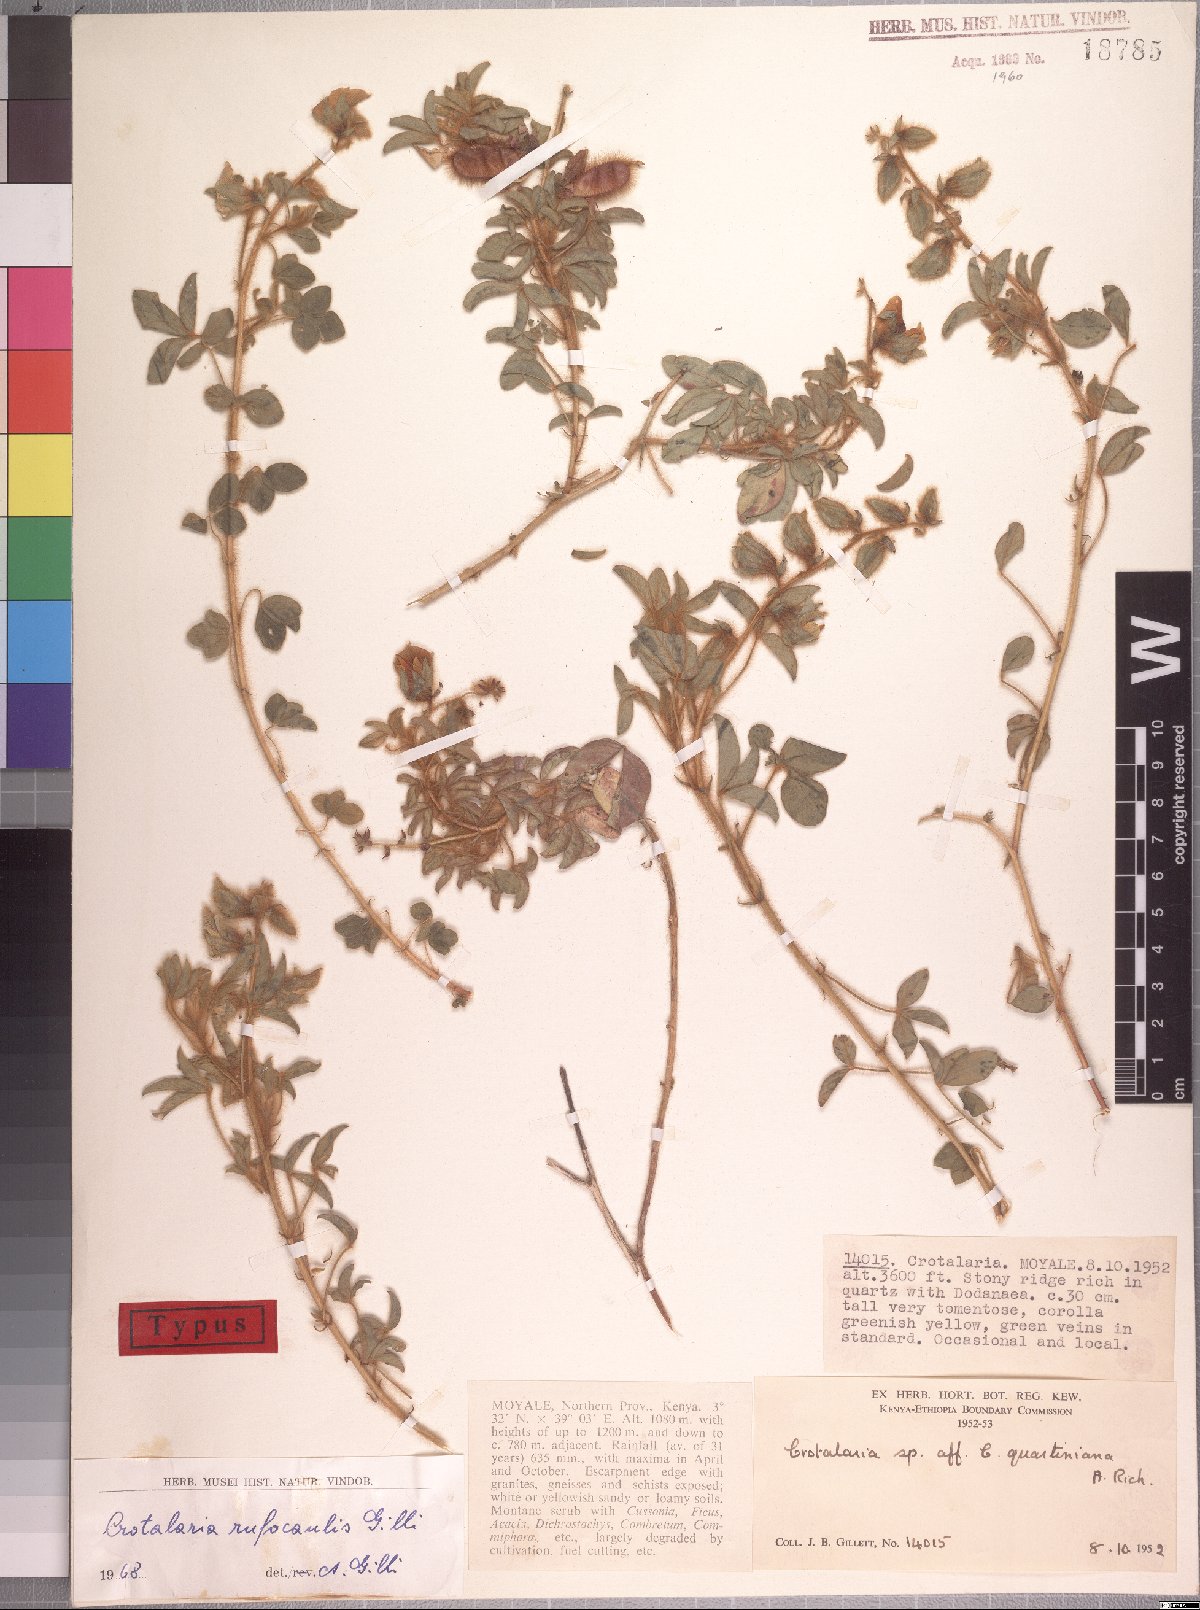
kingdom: Plantae
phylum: Tracheophyta
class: Magnoliopsida
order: Fabales
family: Fabaceae
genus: Crotalaria
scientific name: Crotalaria rufocaulis
